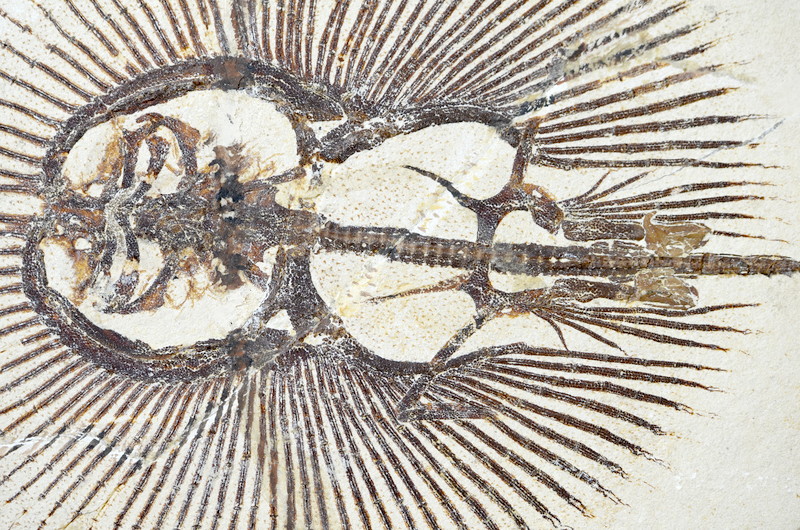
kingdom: Animalia
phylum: Chordata
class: Elasmobranchii
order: Rajiformes
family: Rajidae
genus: Cyclobatis
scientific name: Cyclobatis oligodactylus
